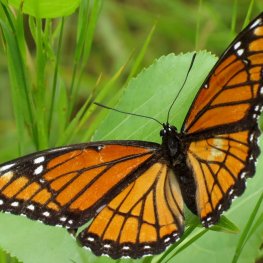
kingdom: Animalia
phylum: Arthropoda
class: Insecta
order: Lepidoptera
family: Nymphalidae
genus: Limenitis
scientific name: Limenitis archippus
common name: Viceroy
